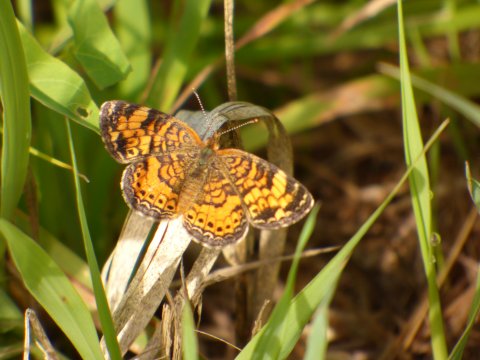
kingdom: Animalia
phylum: Arthropoda
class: Insecta
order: Lepidoptera
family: Nymphalidae
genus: Phyciodes
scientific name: Phyciodes tharos
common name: Pearl Crescent
